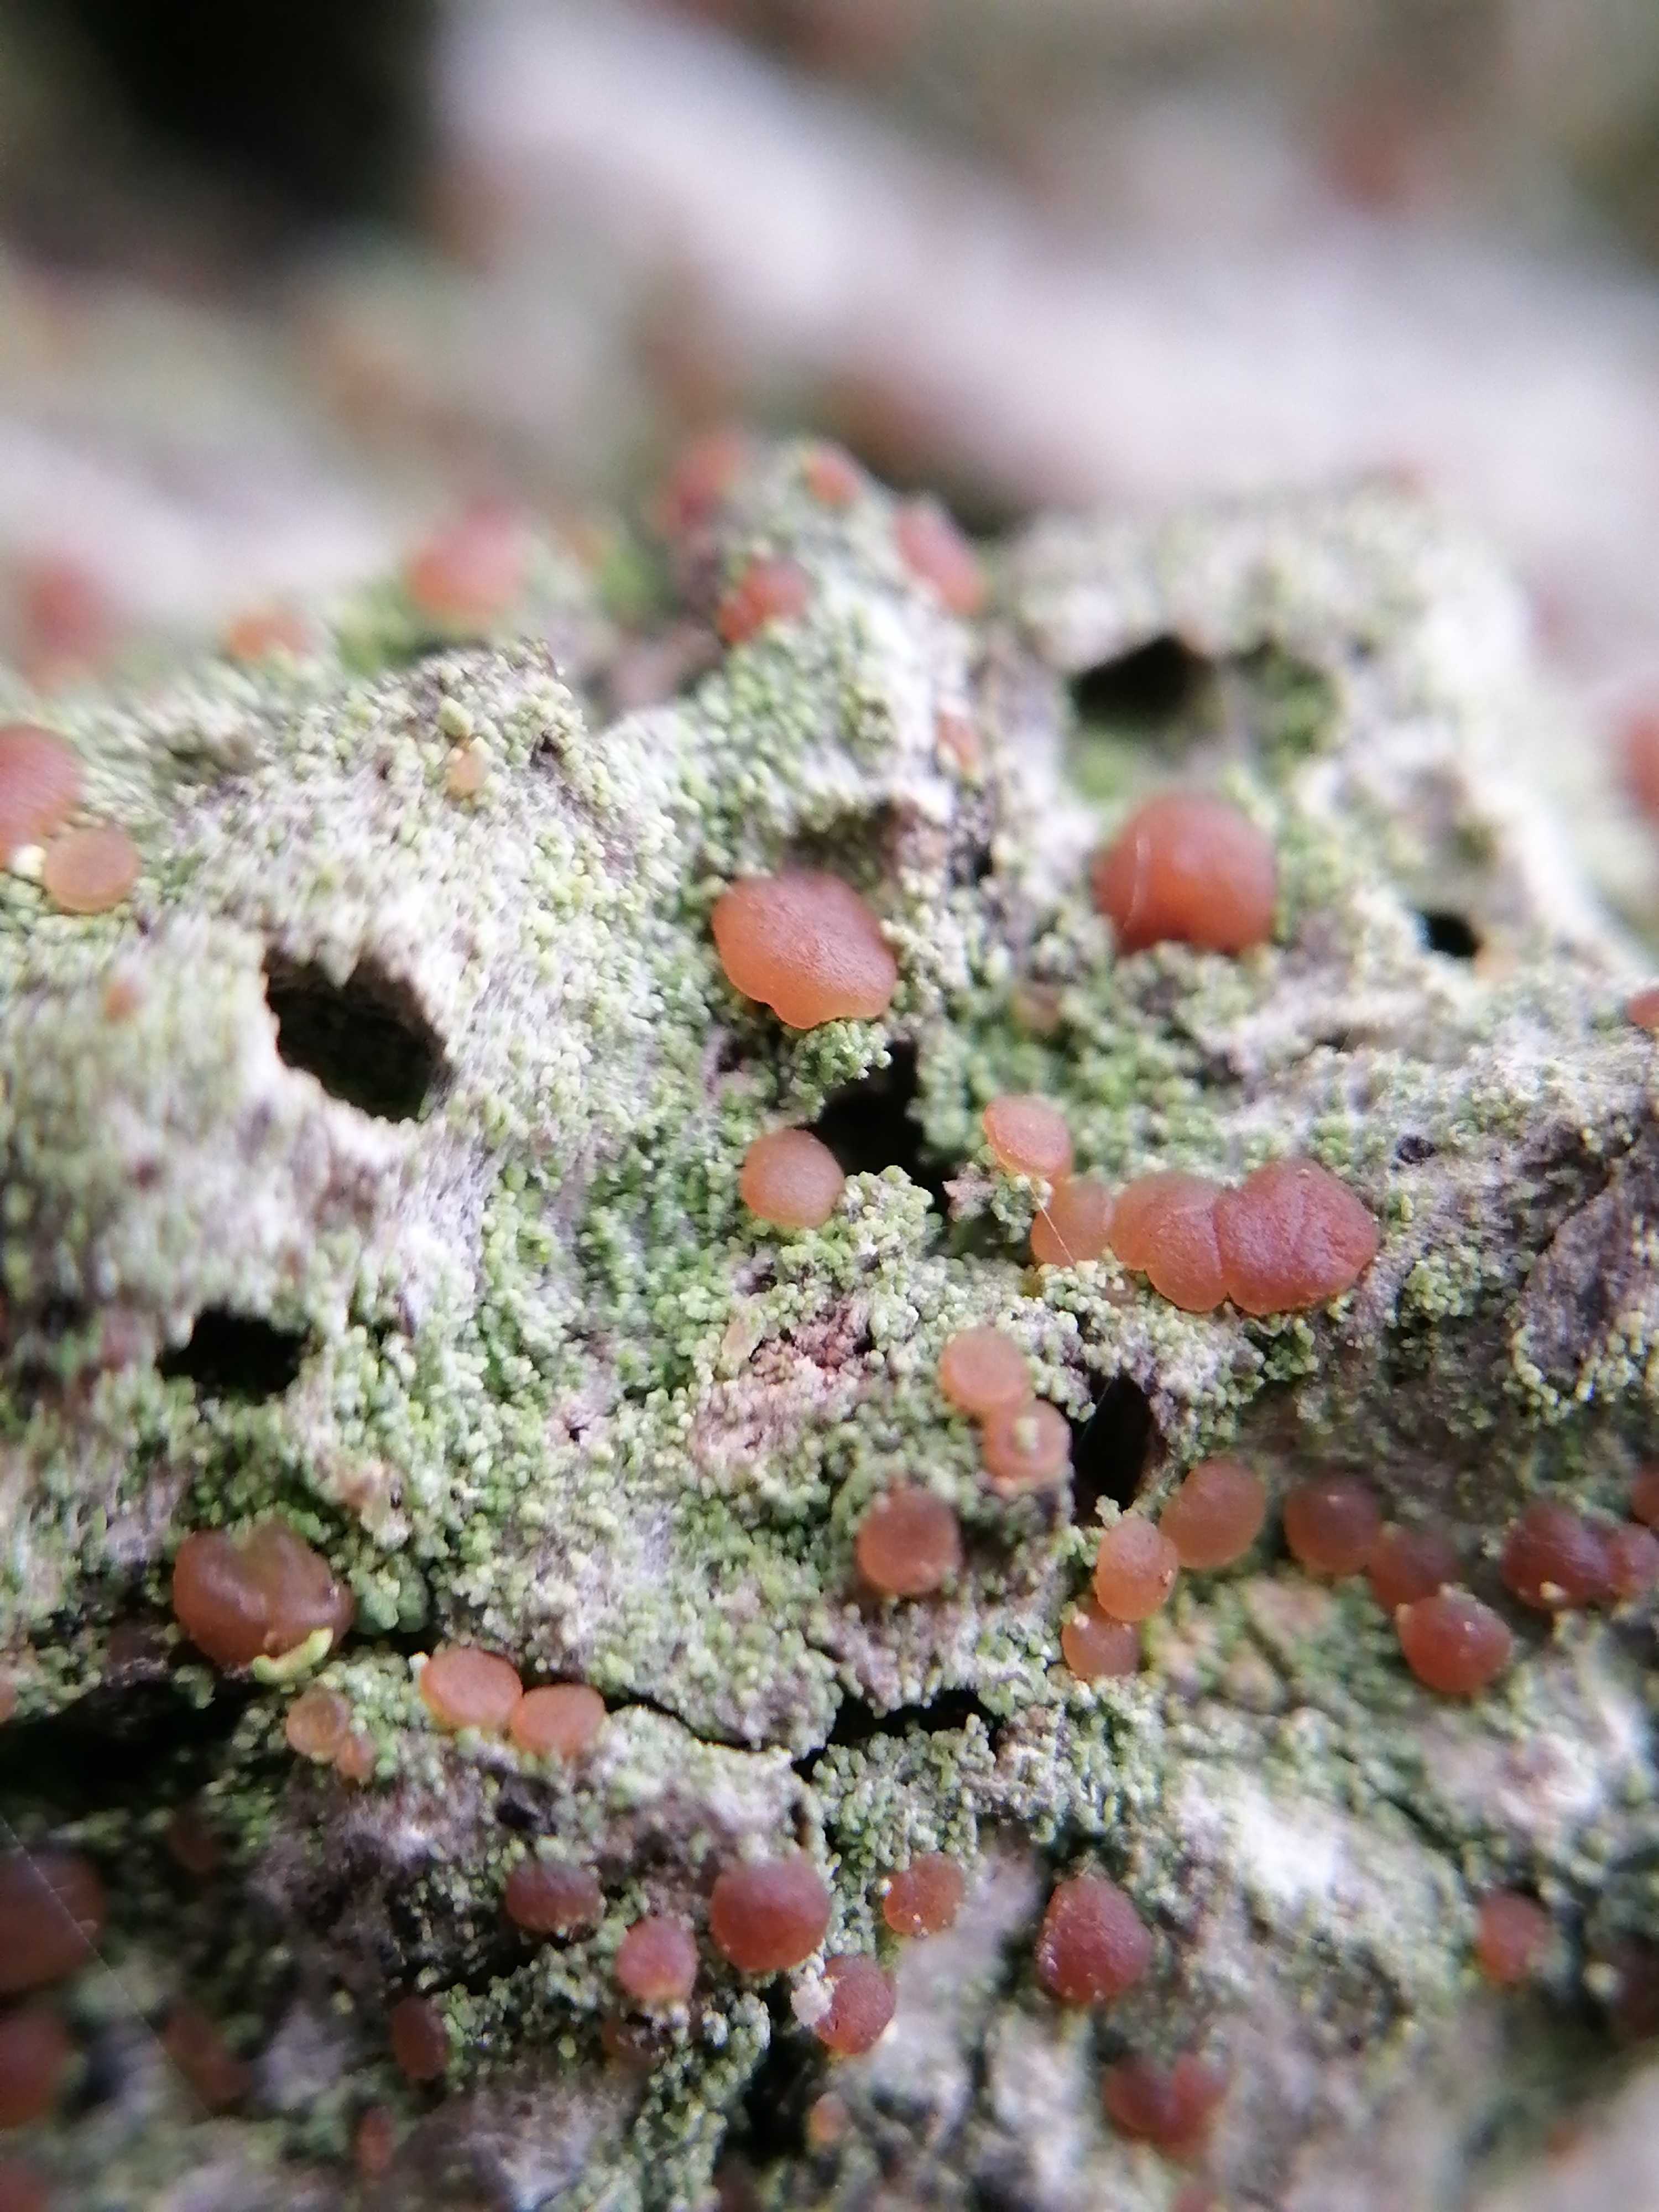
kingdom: Fungi
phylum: Ascomycota
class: Lecanoromycetes
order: Lecanorales
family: Ramalinaceae
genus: Bacidia
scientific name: Bacidia rubella
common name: rødbrun tensporelav
